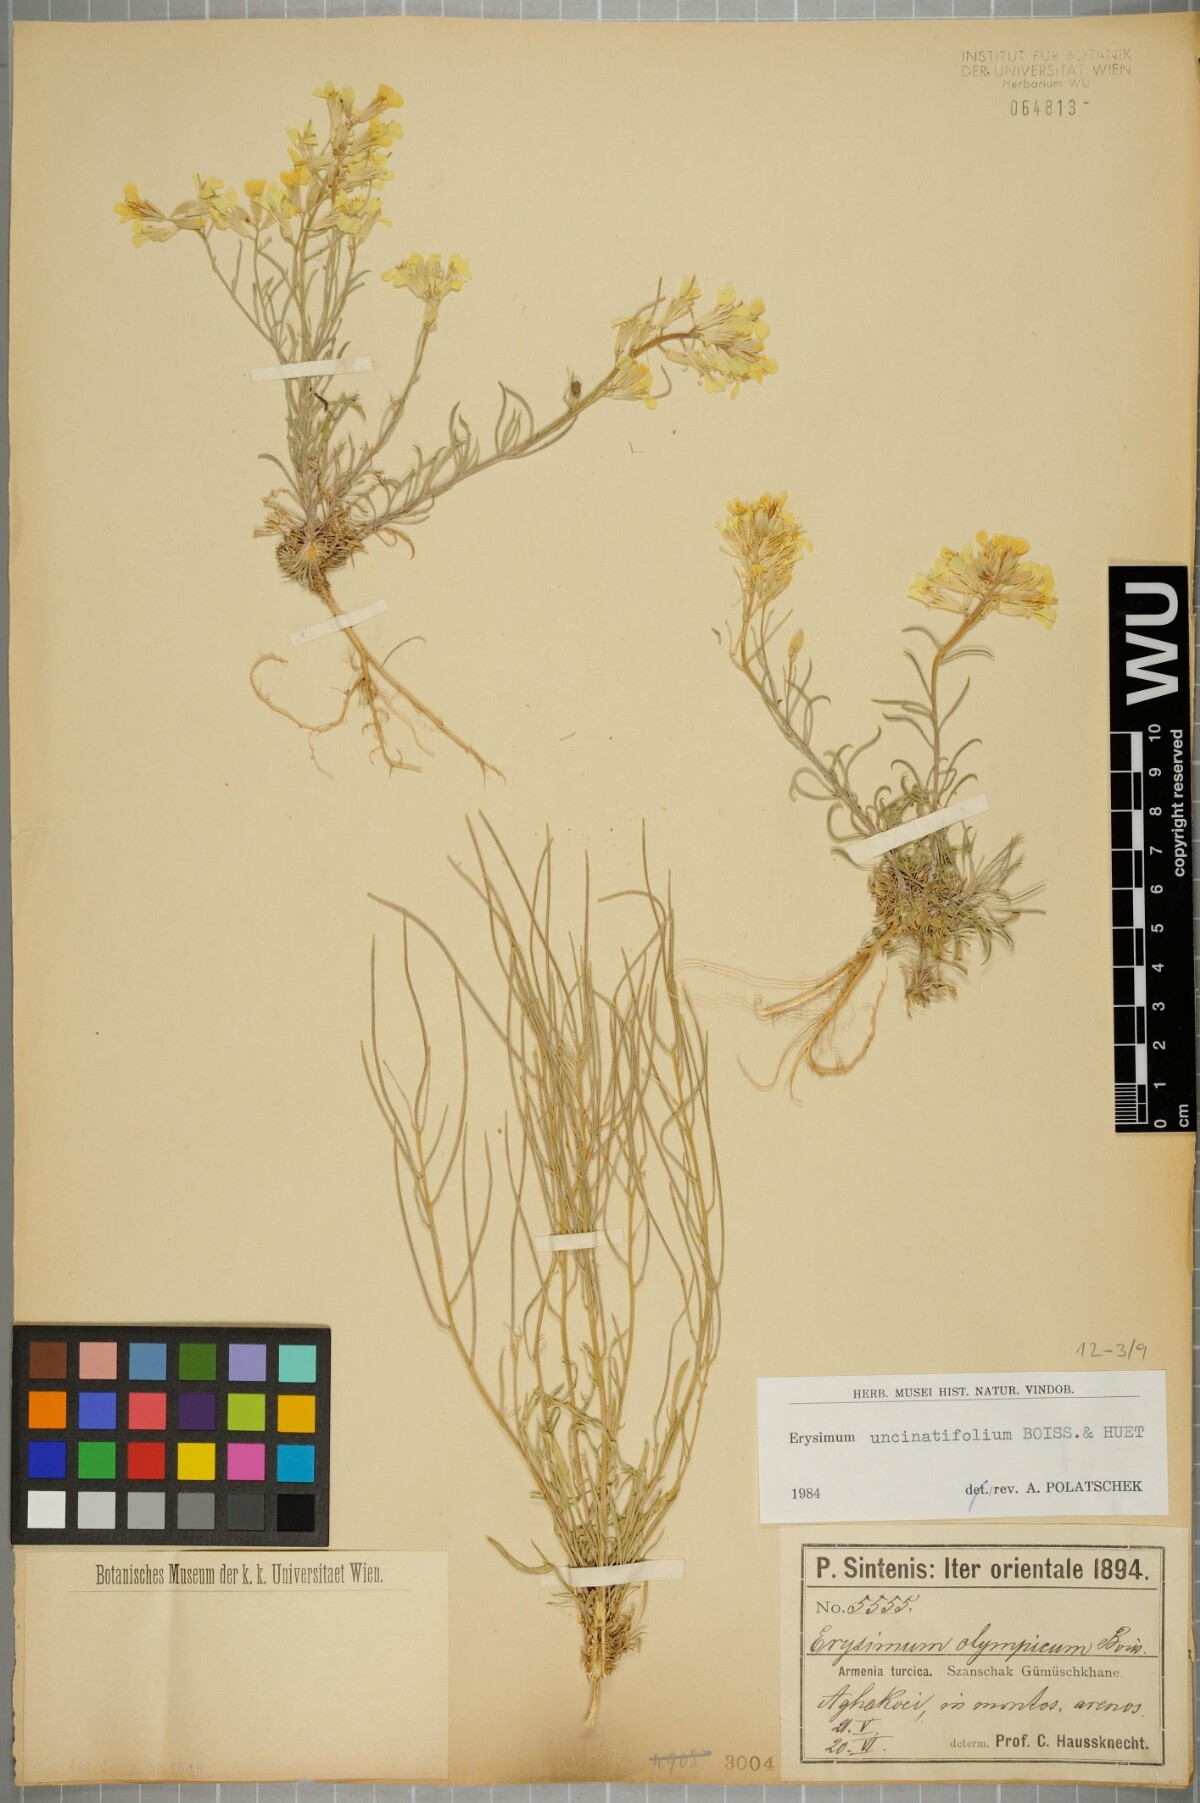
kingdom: Plantae
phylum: Tracheophyta
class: Magnoliopsida
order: Brassicales
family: Brassicaceae
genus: Erysimum
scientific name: Erysimum uncinatifolium
